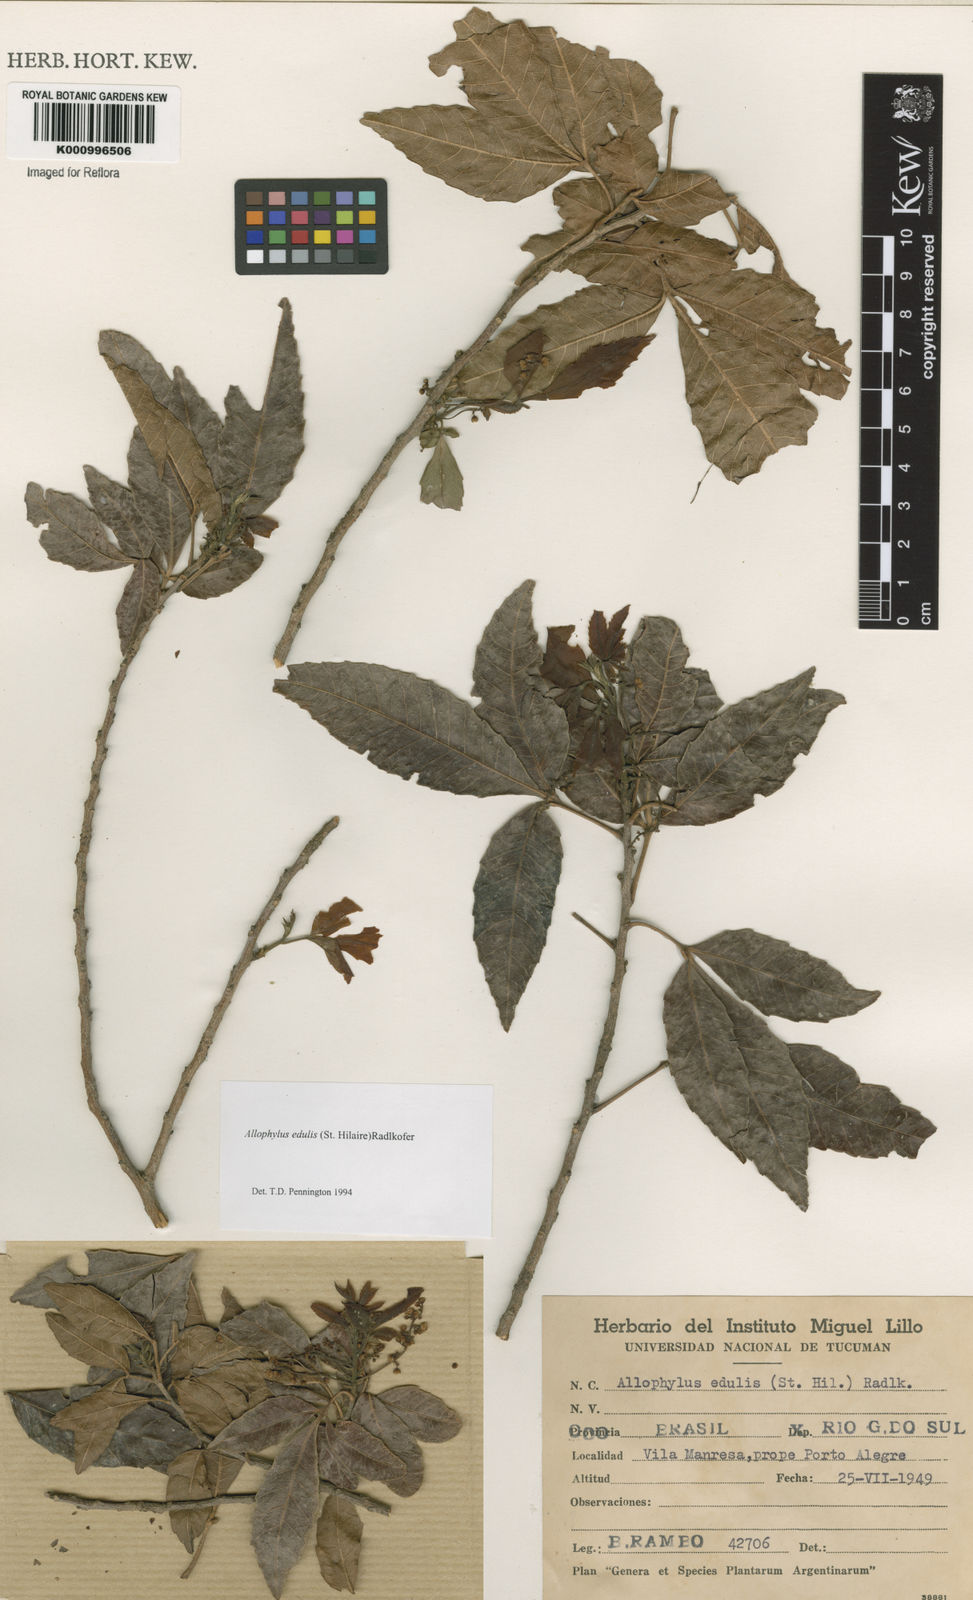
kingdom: Plantae
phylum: Tracheophyta
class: Magnoliopsida
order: Sapindales
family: Sapindaceae
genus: Allophylus
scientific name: Allophylus edulis
